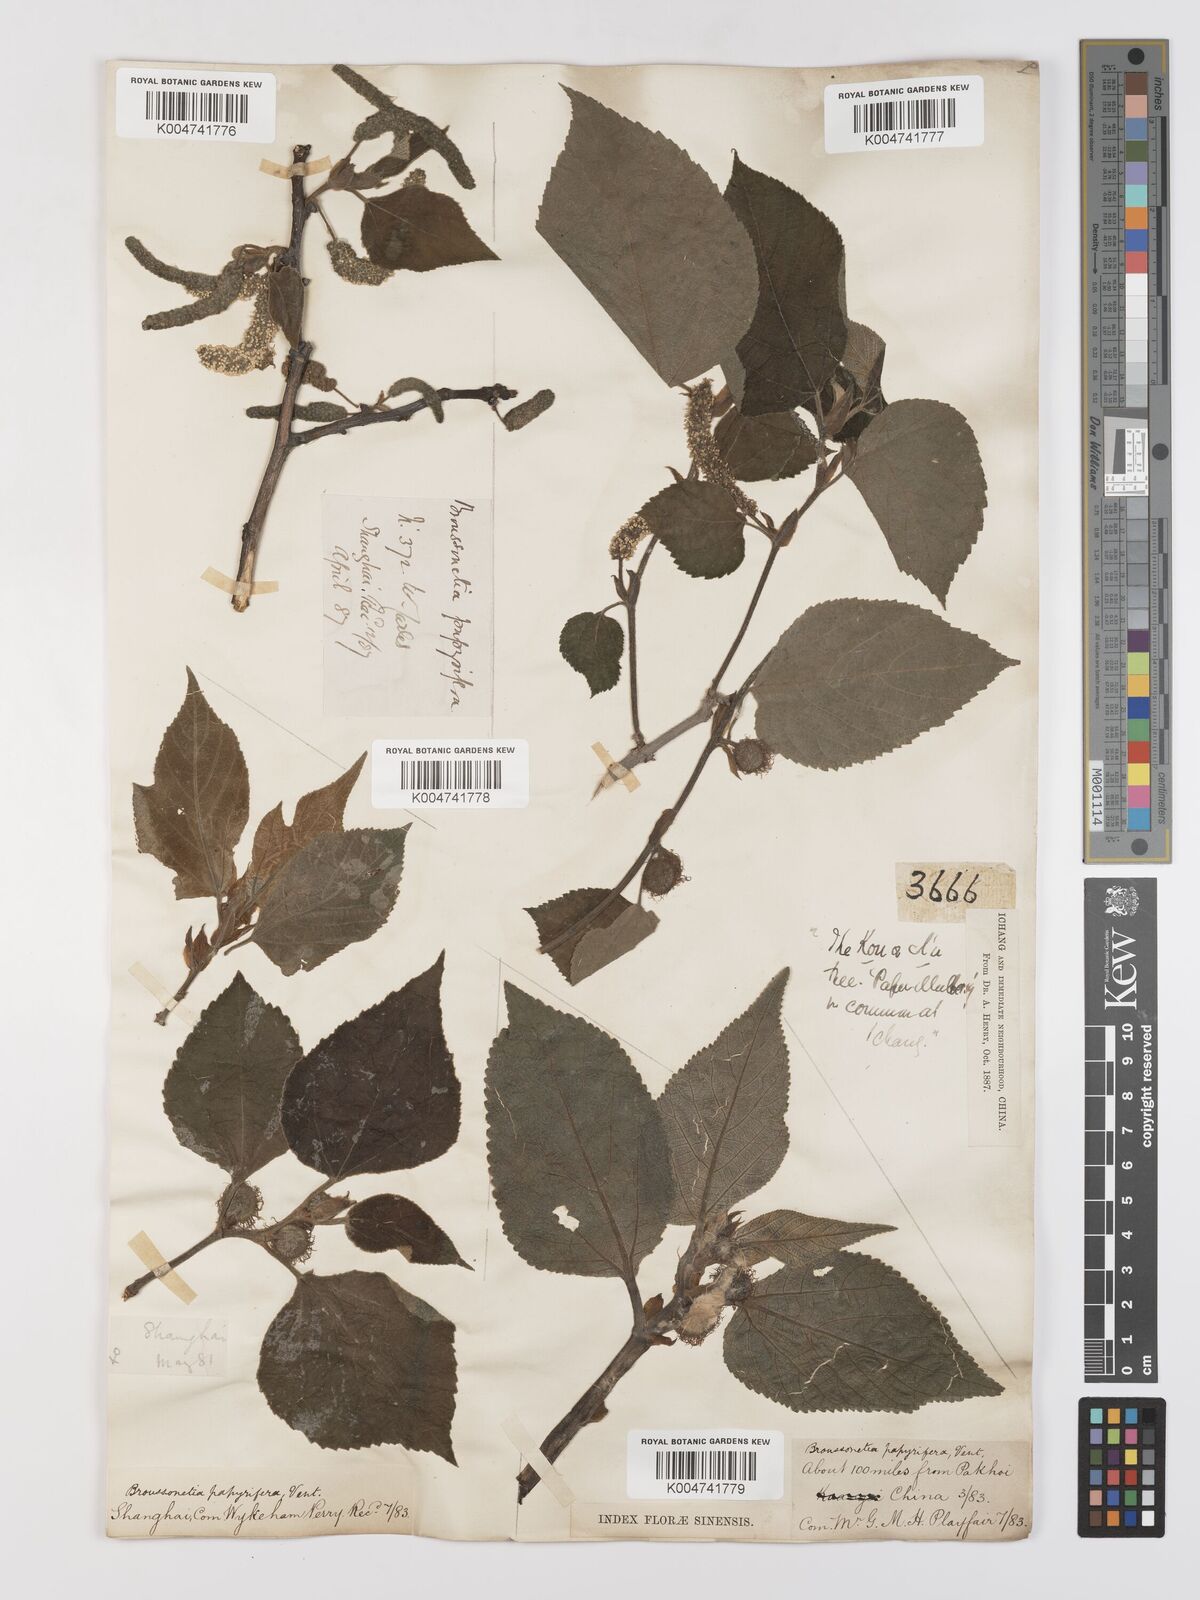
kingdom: Plantae
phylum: Tracheophyta
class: Magnoliopsida
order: Rosales
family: Moraceae
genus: Broussonetia
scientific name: Broussonetia papyrifera
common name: Paper mulberry
